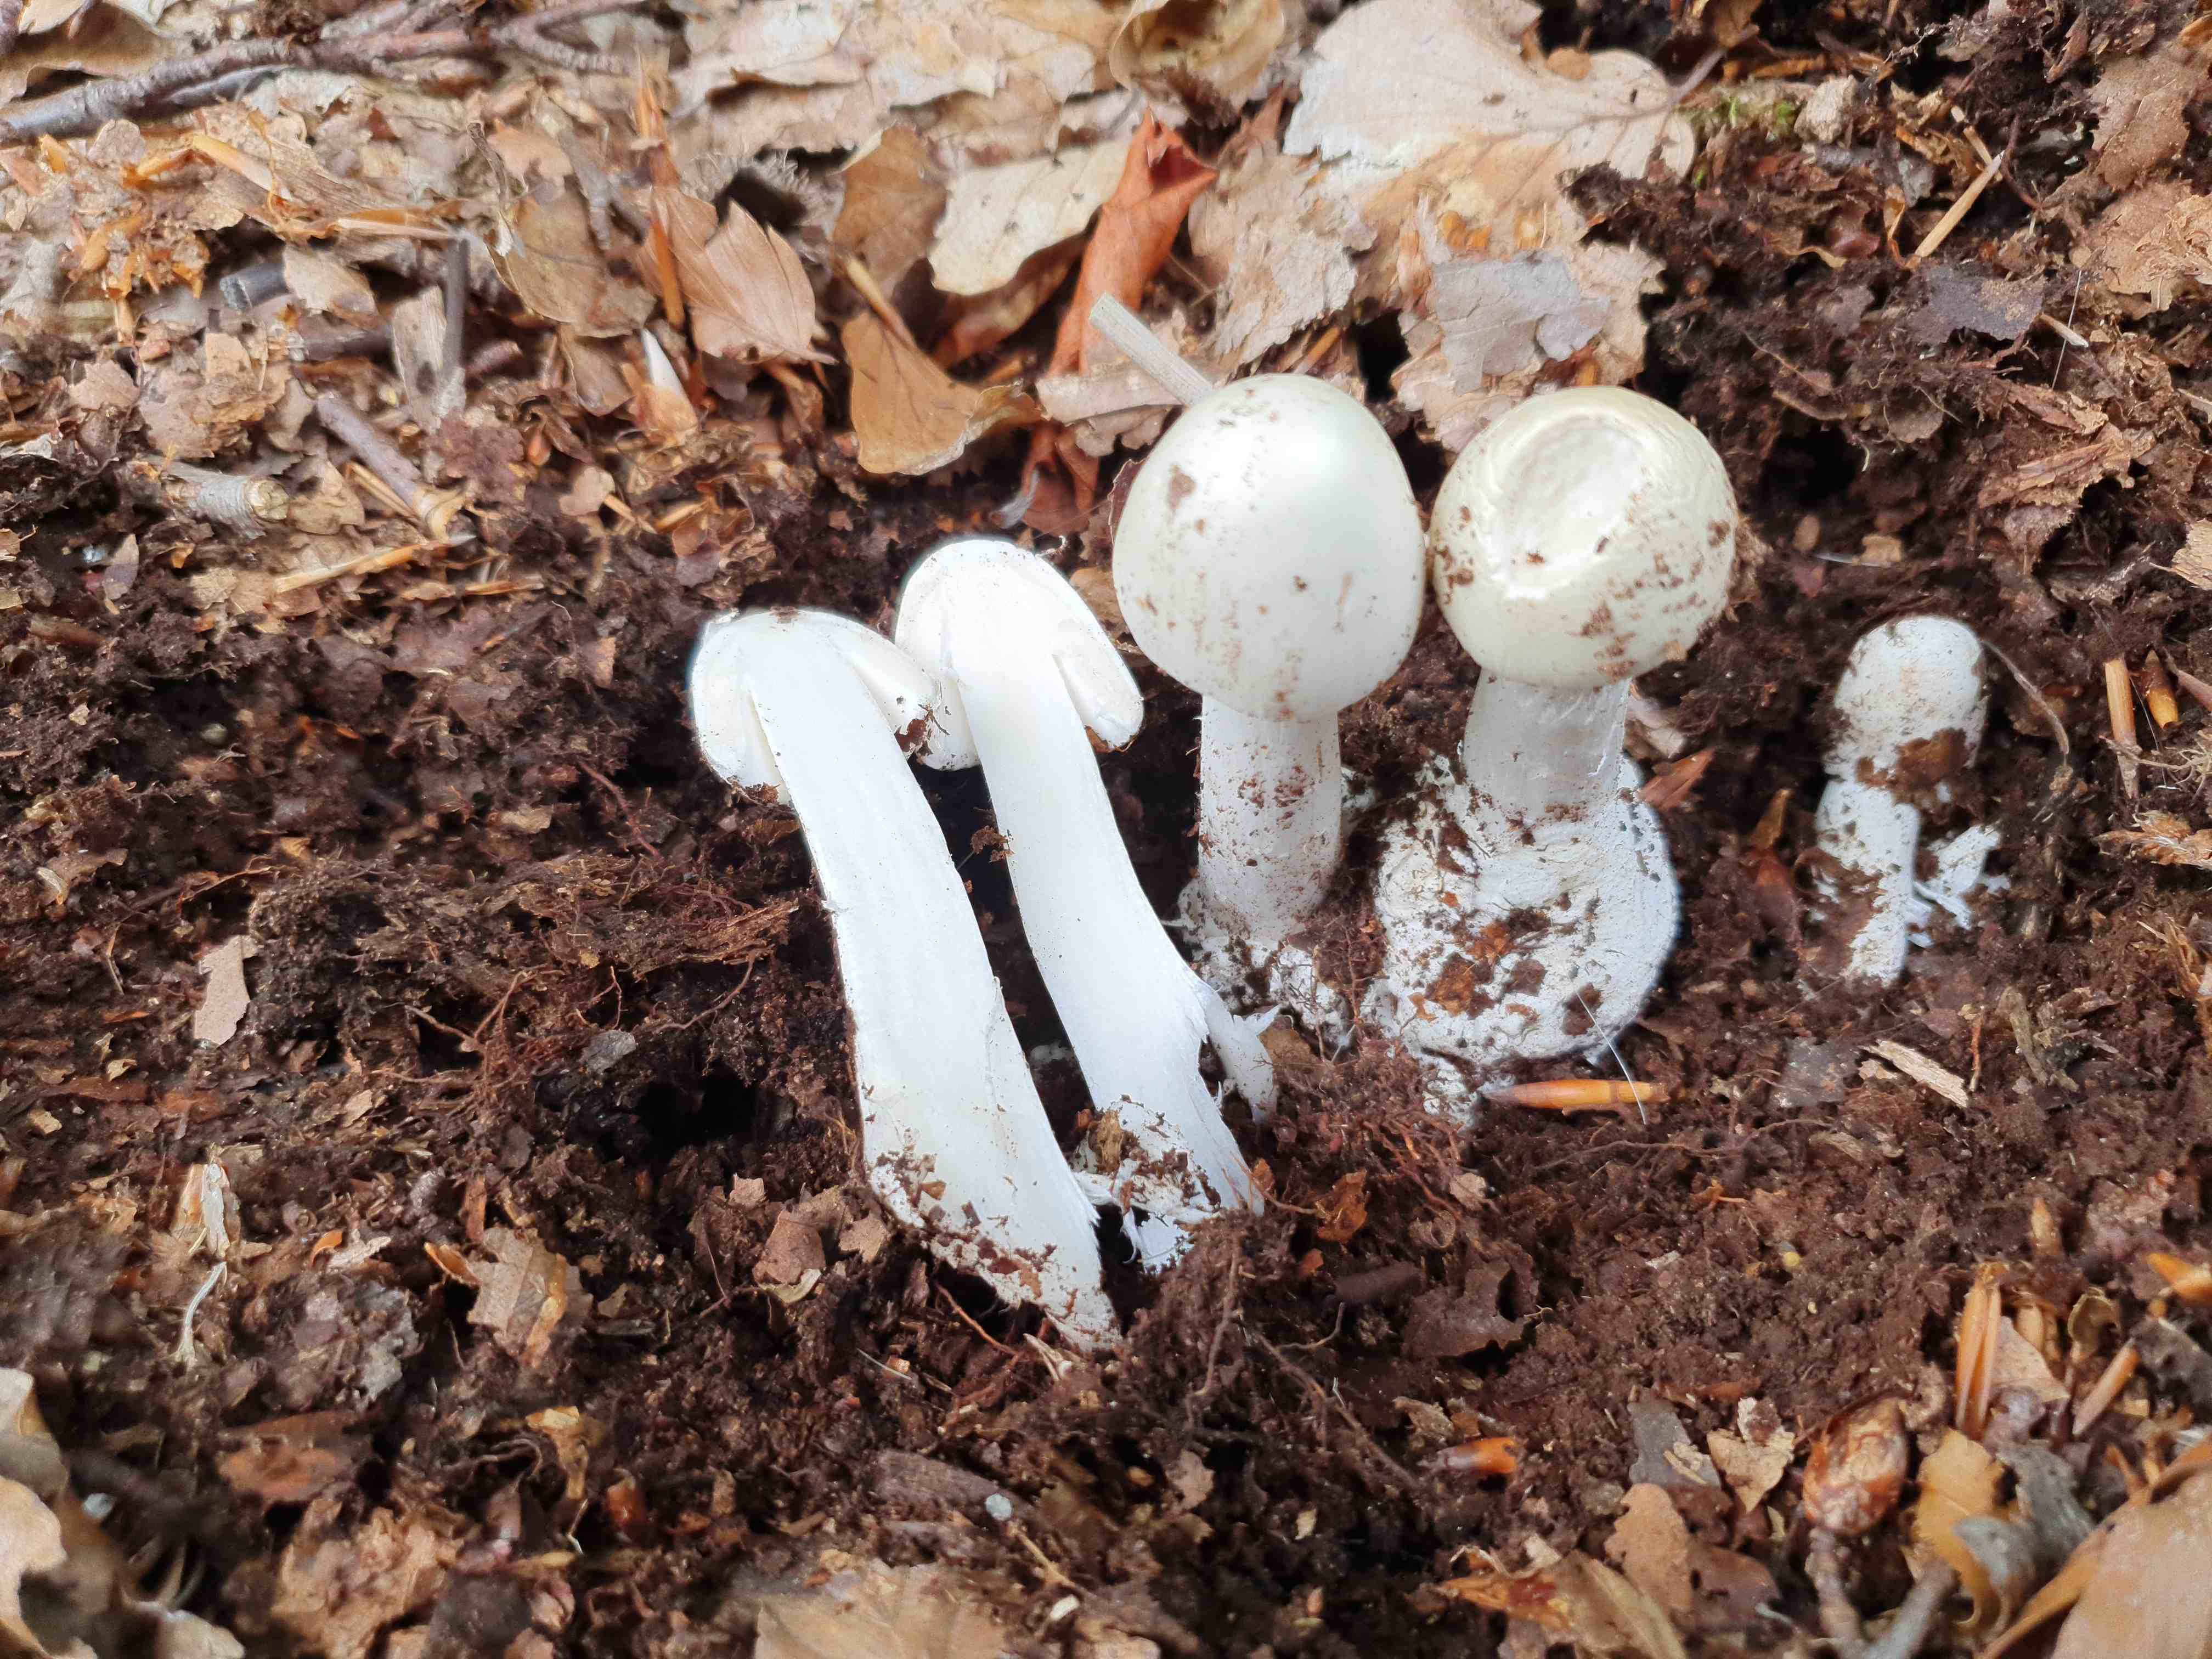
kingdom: Fungi
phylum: Basidiomycota
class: Agaricomycetes
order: Agaricales
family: Amanitaceae
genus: Amanita
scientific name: Amanita virosa
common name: snehvid fluesvamp
